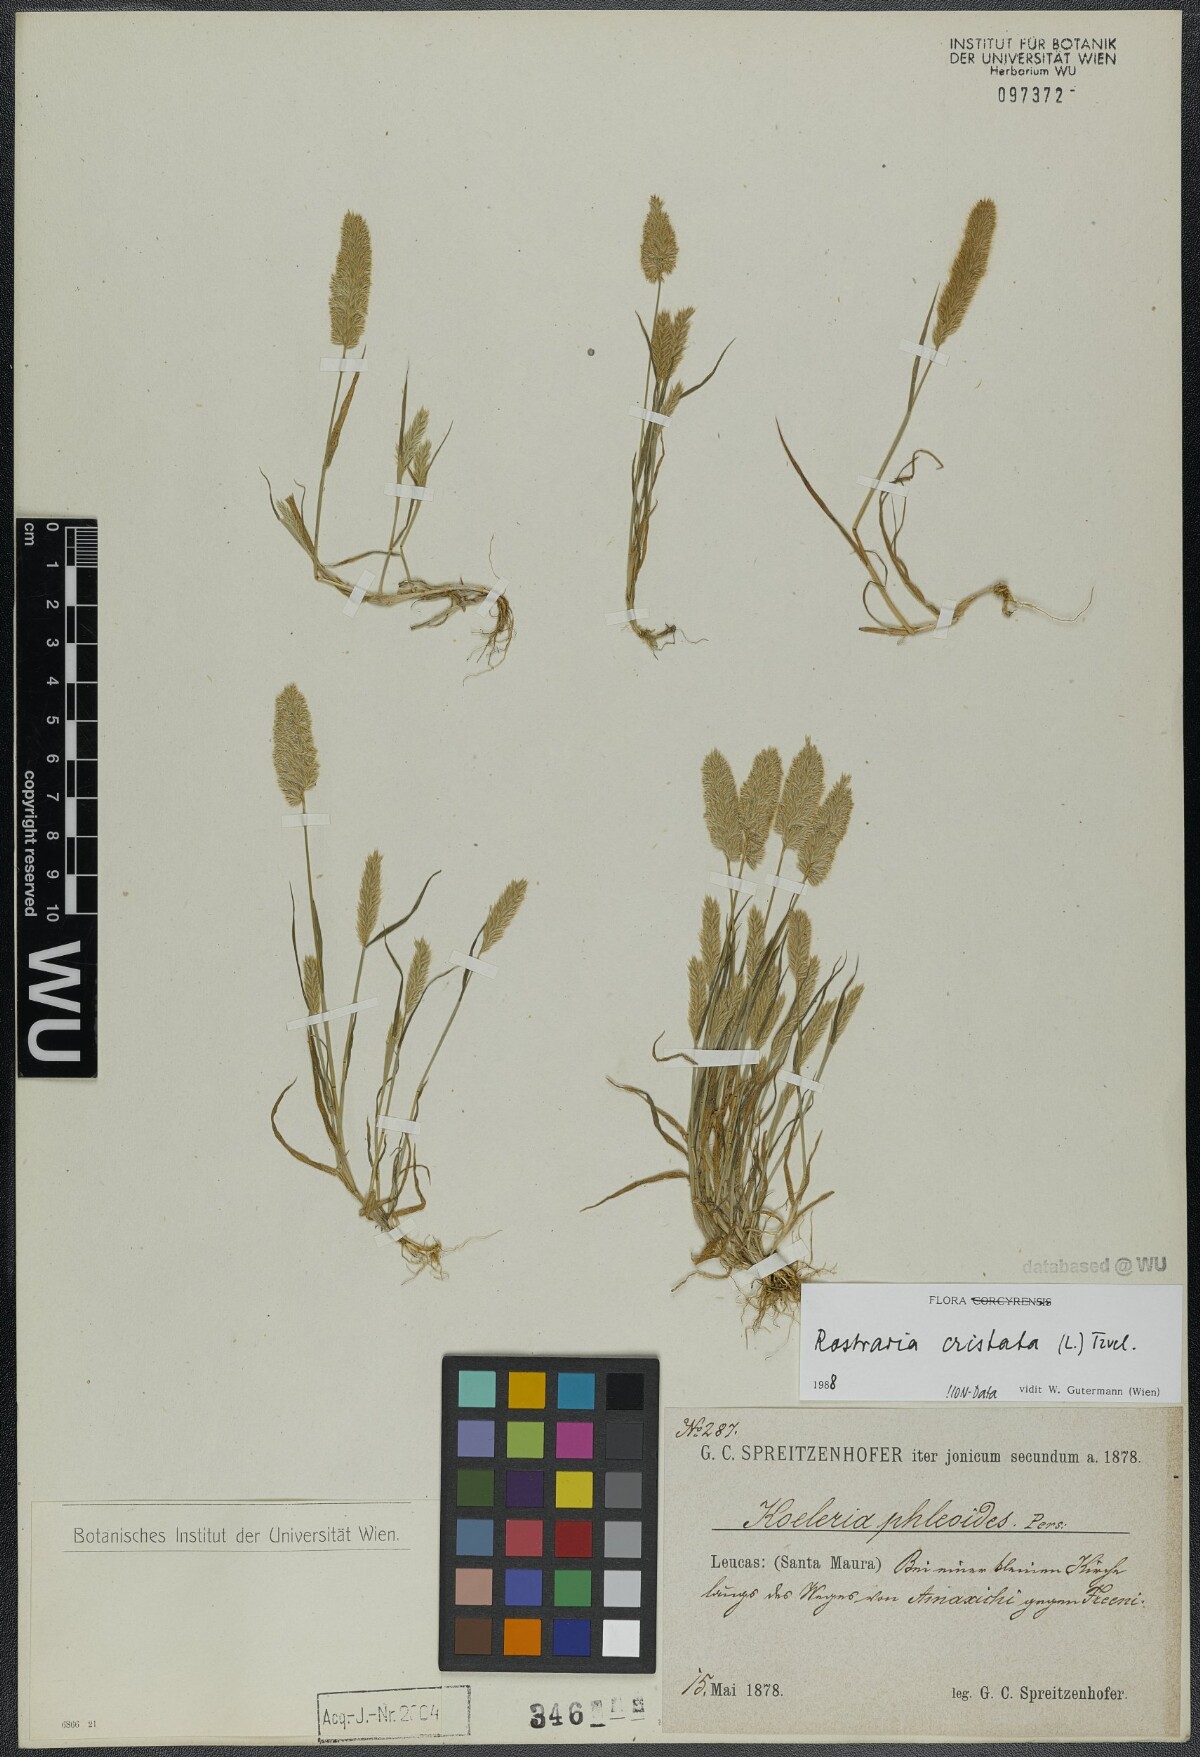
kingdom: Plantae
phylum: Tracheophyta
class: Liliopsida
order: Poales
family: Poaceae
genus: Rostraria
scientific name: Rostraria cristata
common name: Mediterranean hair-grass
